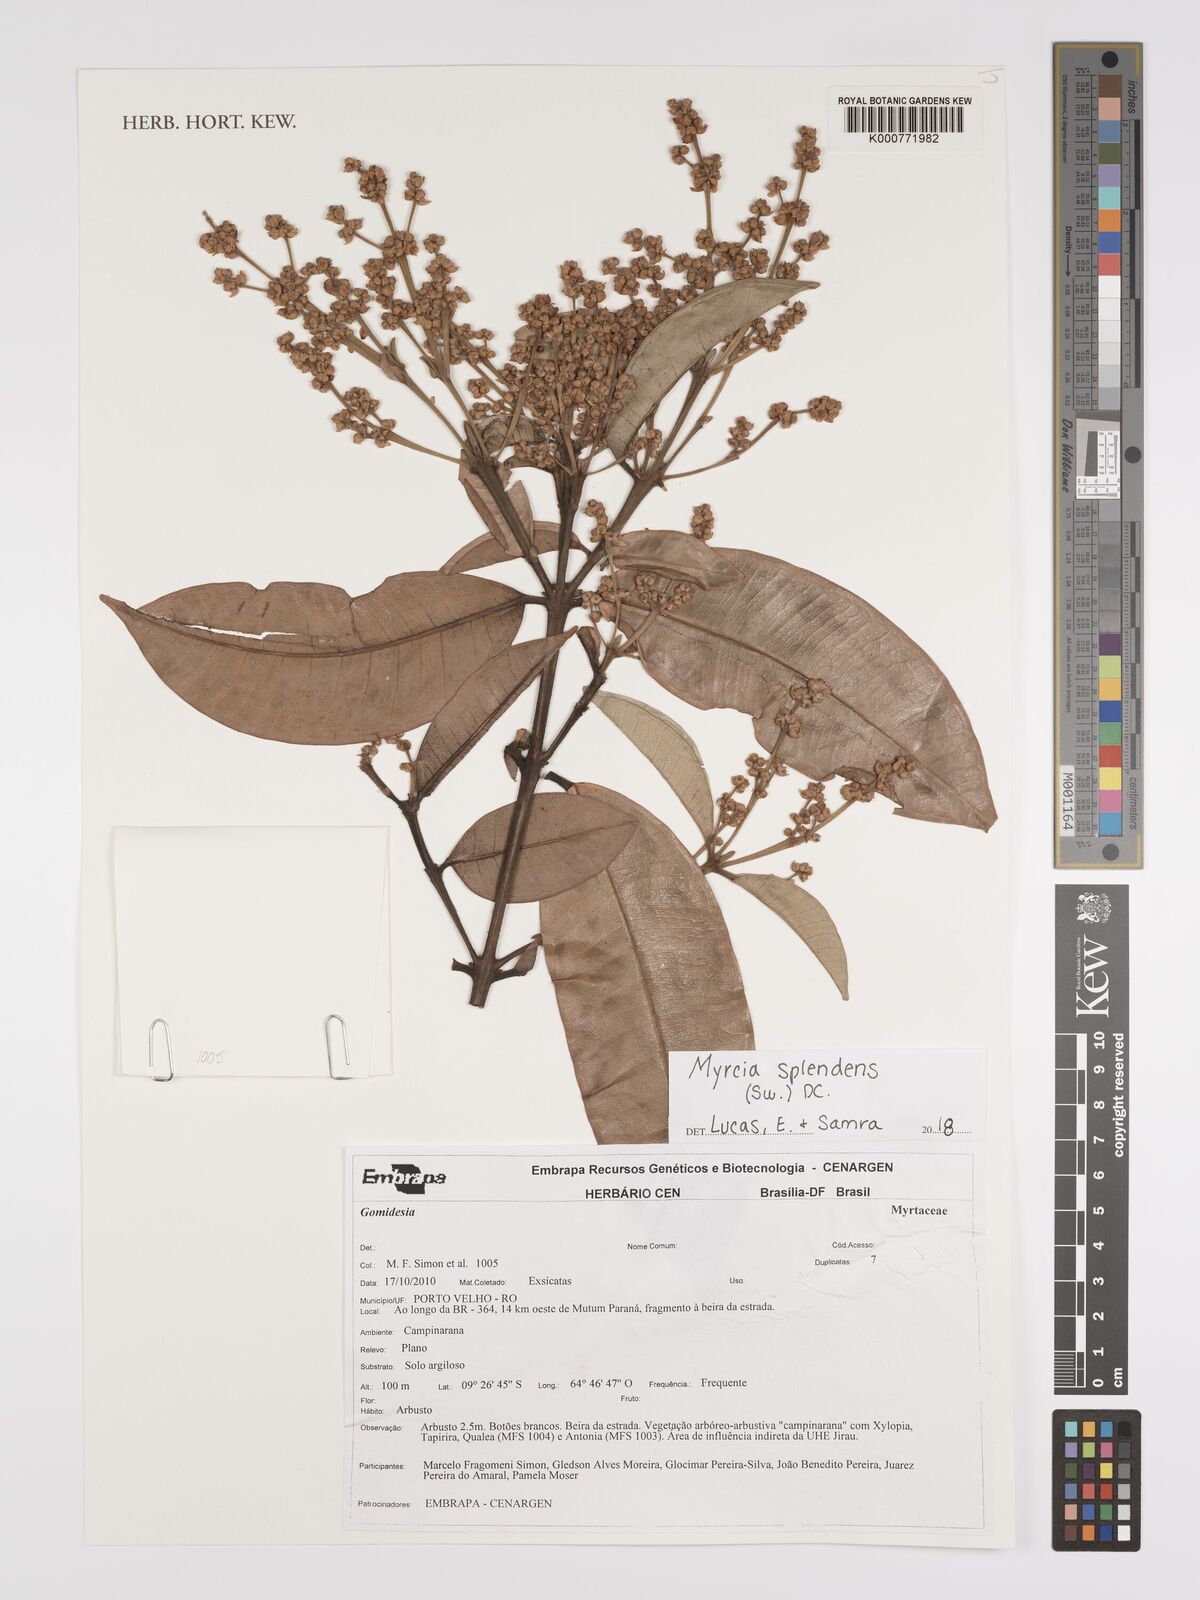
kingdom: Plantae
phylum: Tracheophyta
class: Magnoliopsida
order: Myrtales
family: Myrtaceae
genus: Myrcia
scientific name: Myrcia splendens
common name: Surinam cherry
